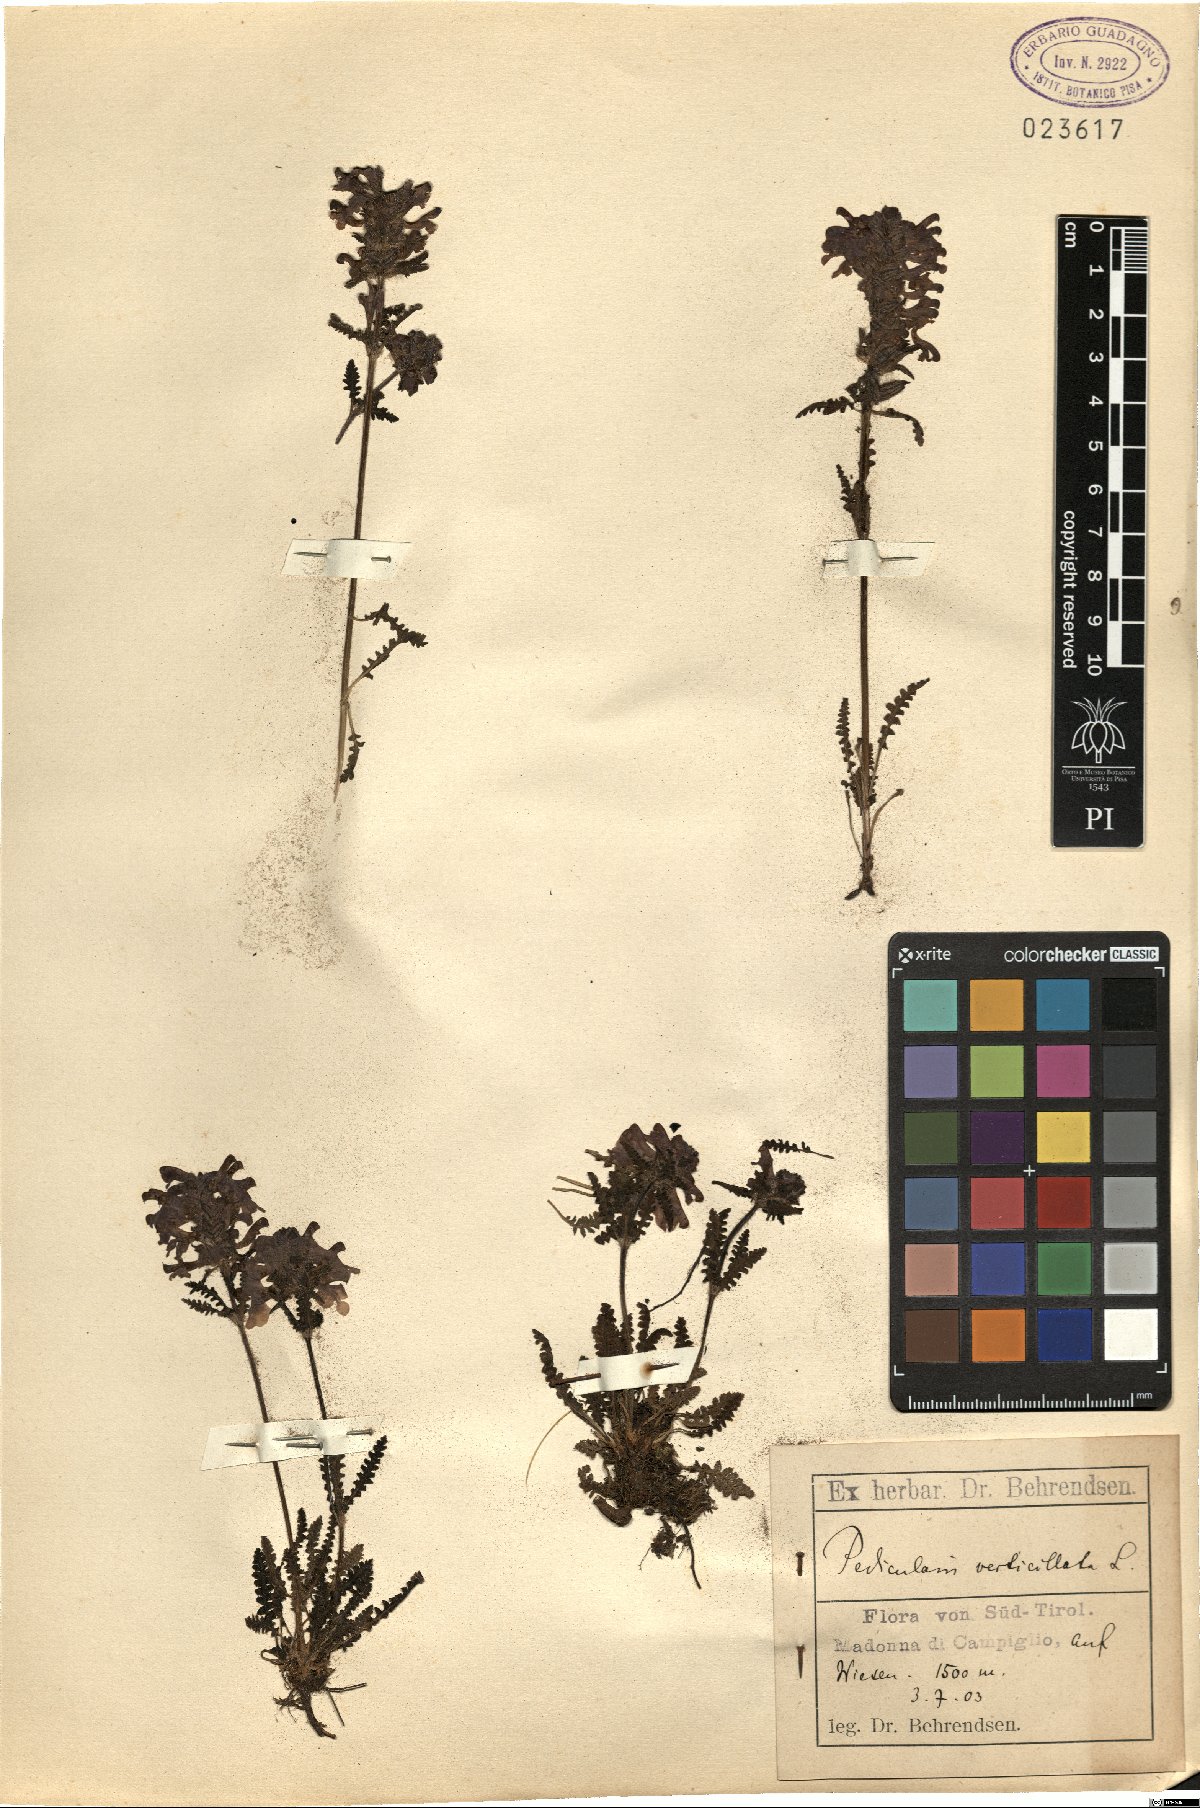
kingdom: Plantae
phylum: Tracheophyta
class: Magnoliopsida
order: Lamiales
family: Orobanchaceae
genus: Pedicularis
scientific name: Pedicularis verticillata
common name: Whorled lousewort
